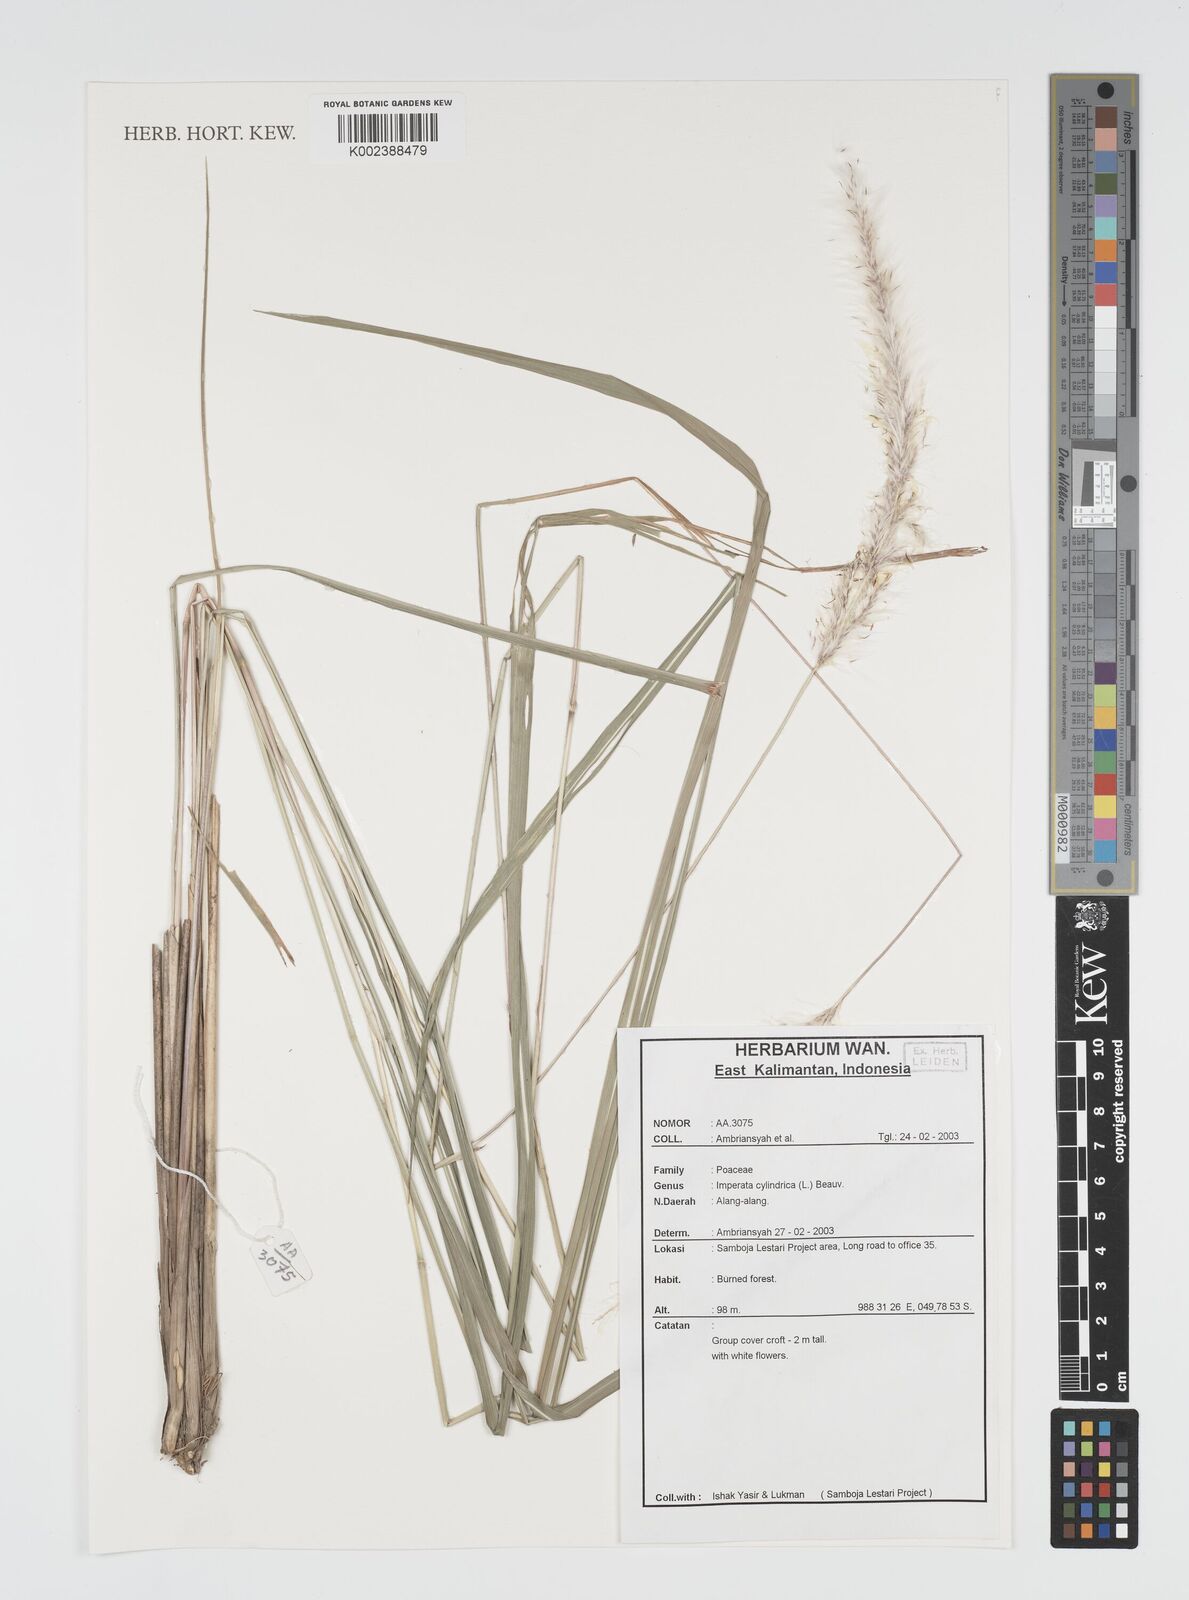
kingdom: Plantae
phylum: Tracheophyta
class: Liliopsida
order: Poales
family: Poaceae
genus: Imperata
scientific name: Imperata cylindrica
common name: Cogongrass
